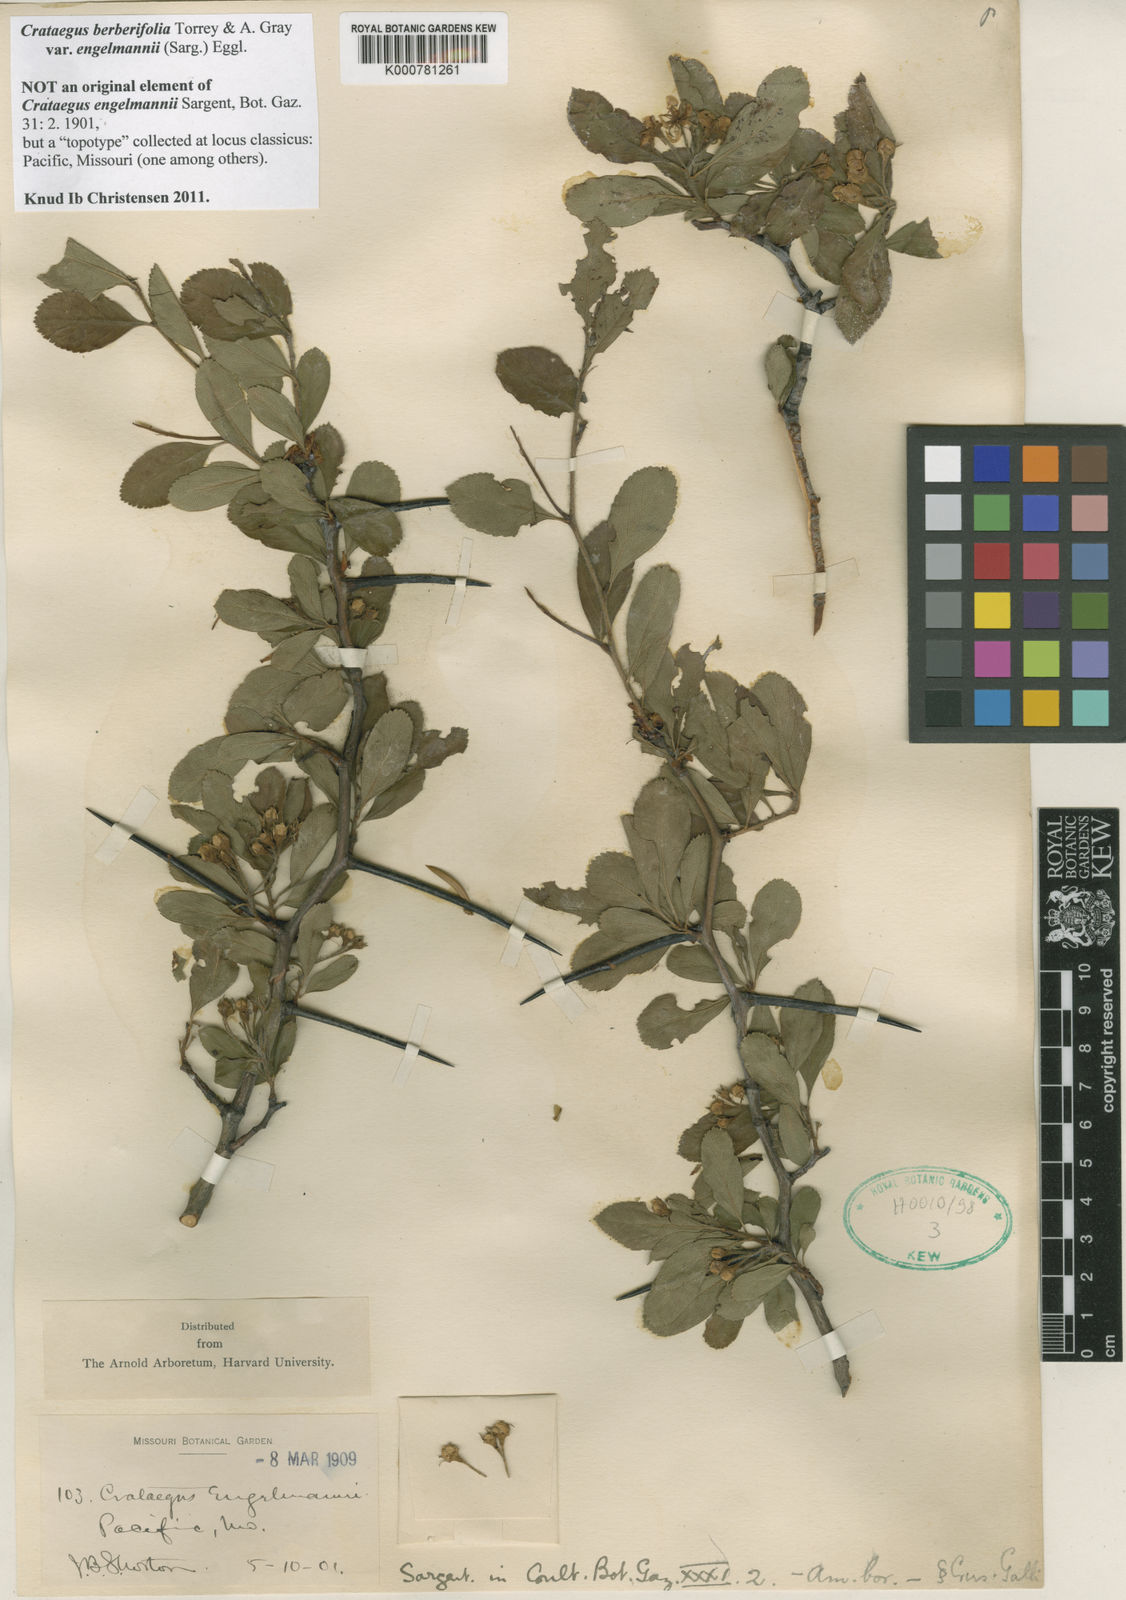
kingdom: Plantae
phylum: Tracheophyta
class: Magnoliopsida
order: Rosales
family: Rosaceae
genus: Crataegus
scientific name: Crataegus berberifolia
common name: Barberry hawthorn
